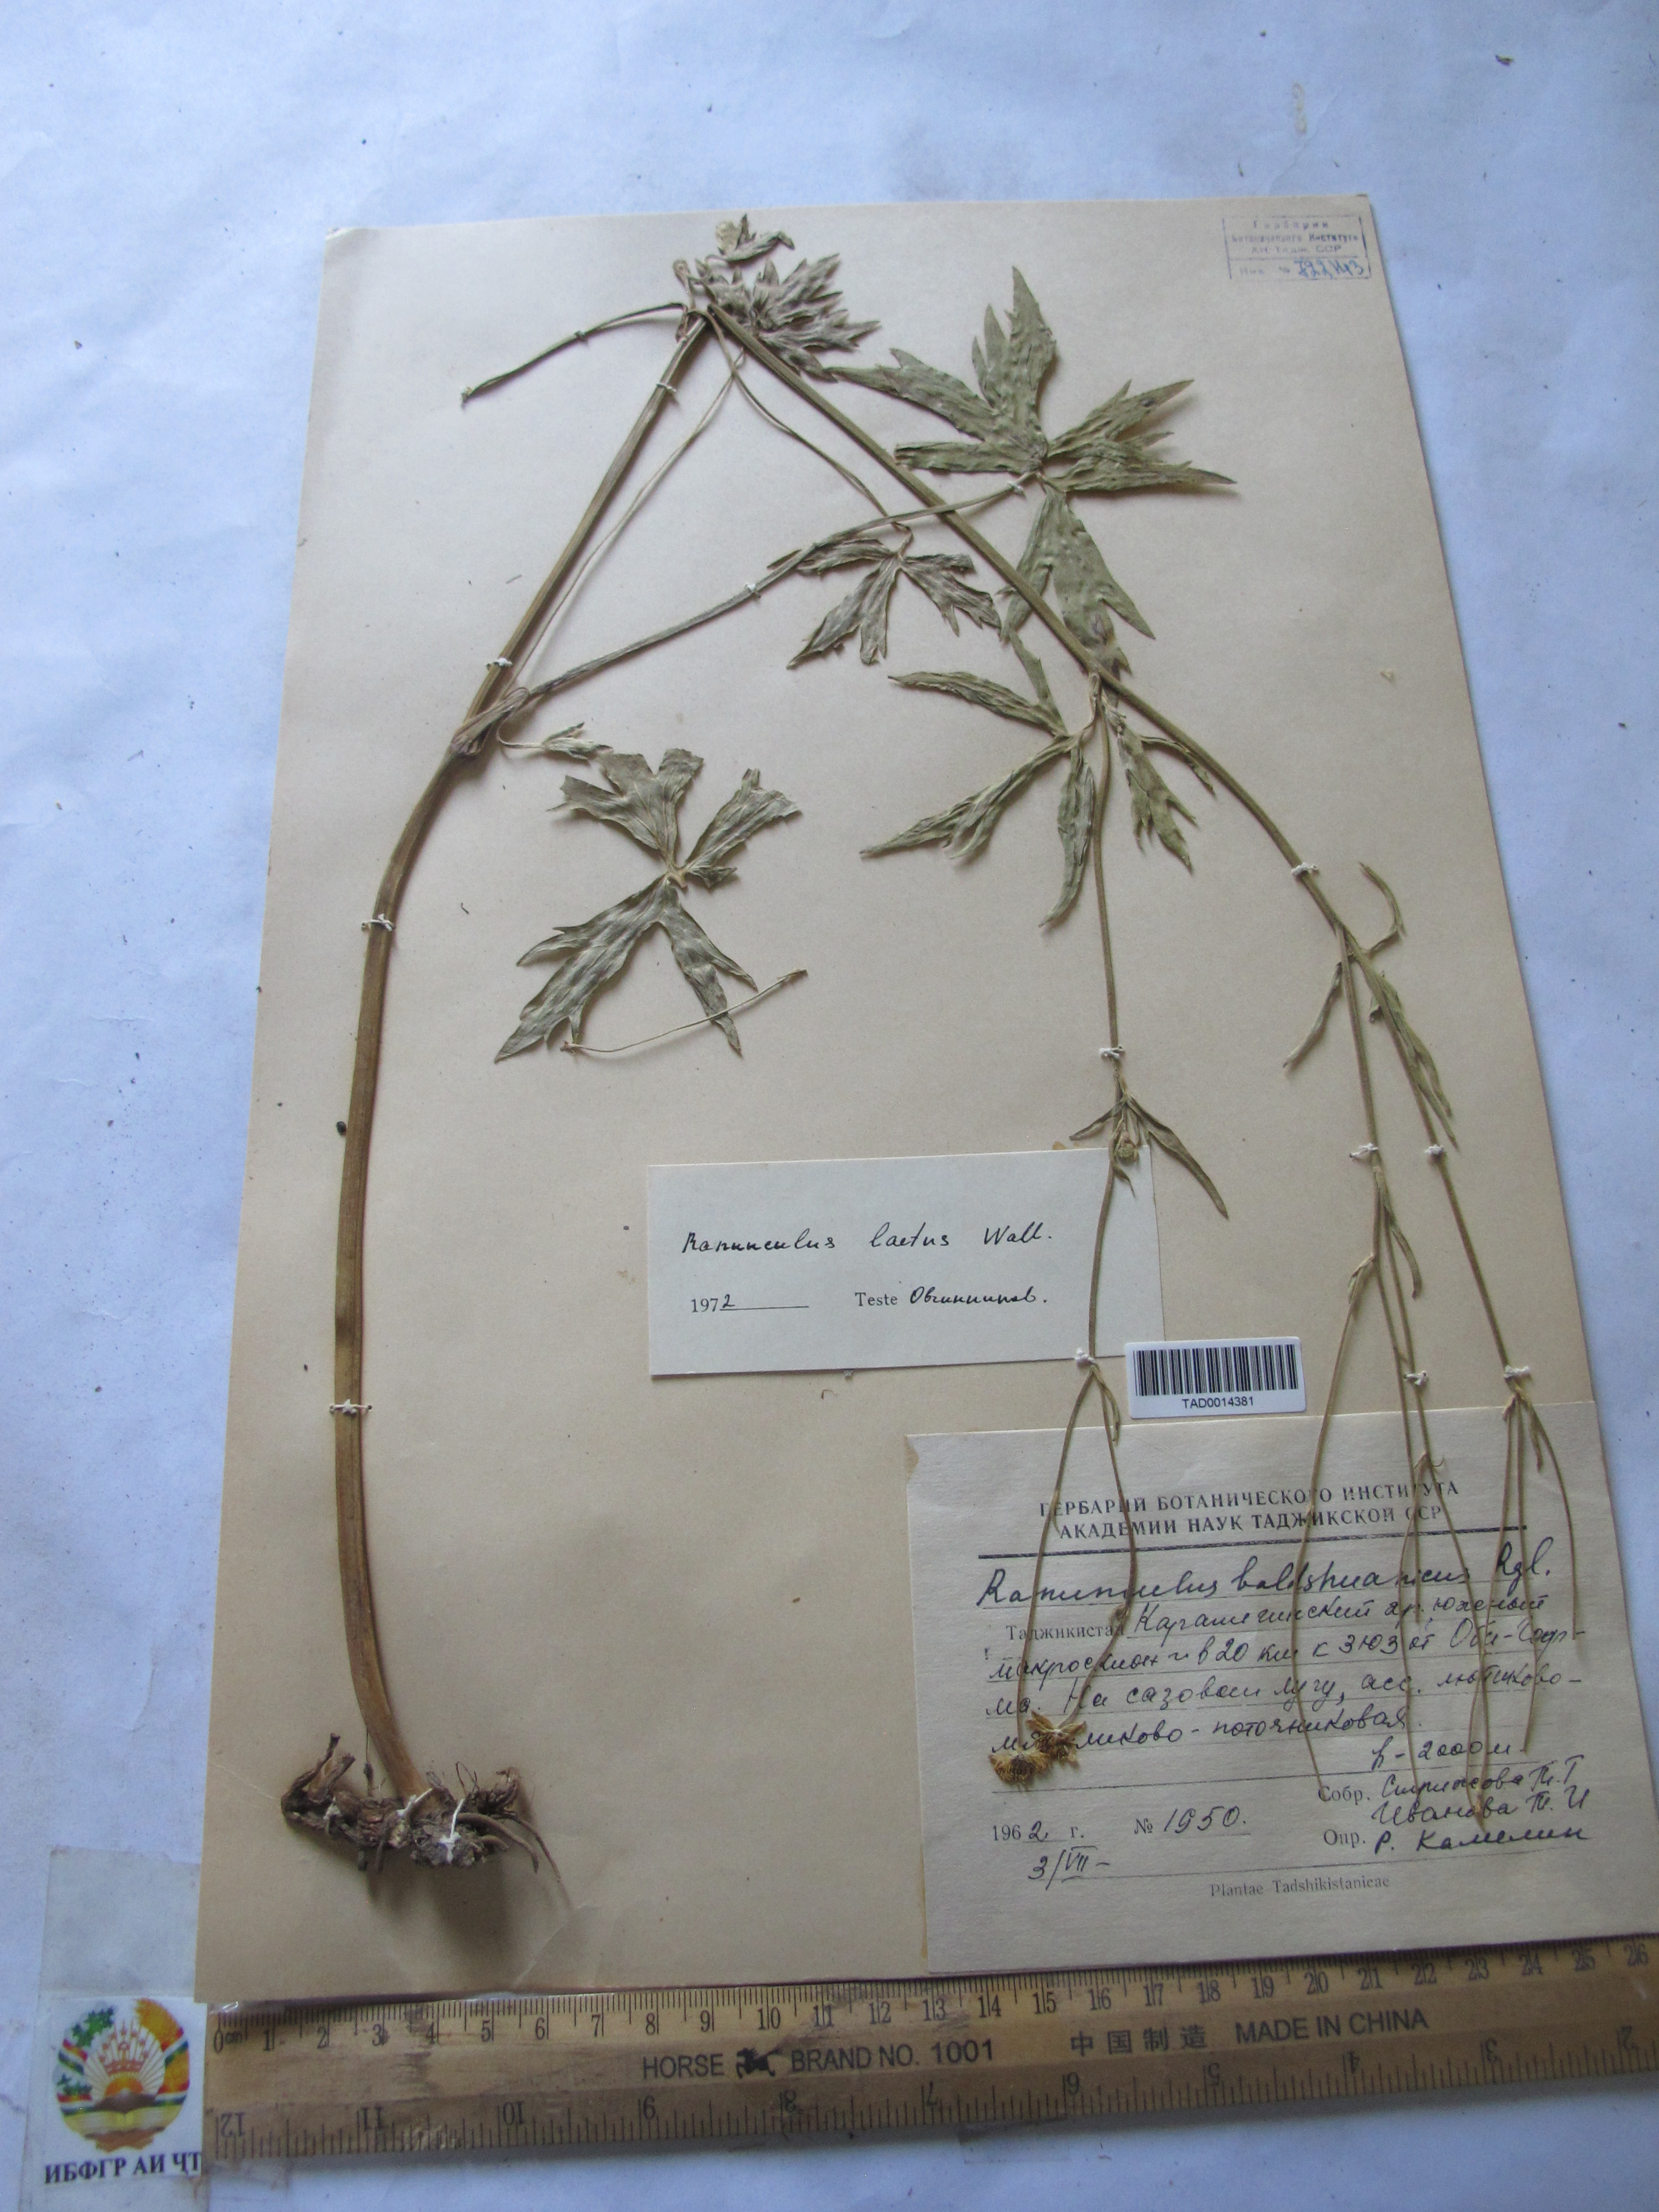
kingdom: Plantae
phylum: Tracheophyta
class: Magnoliopsida
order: Ranunculales
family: Ranunculaceae
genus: Ranunculus
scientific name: Ranunculus distans
